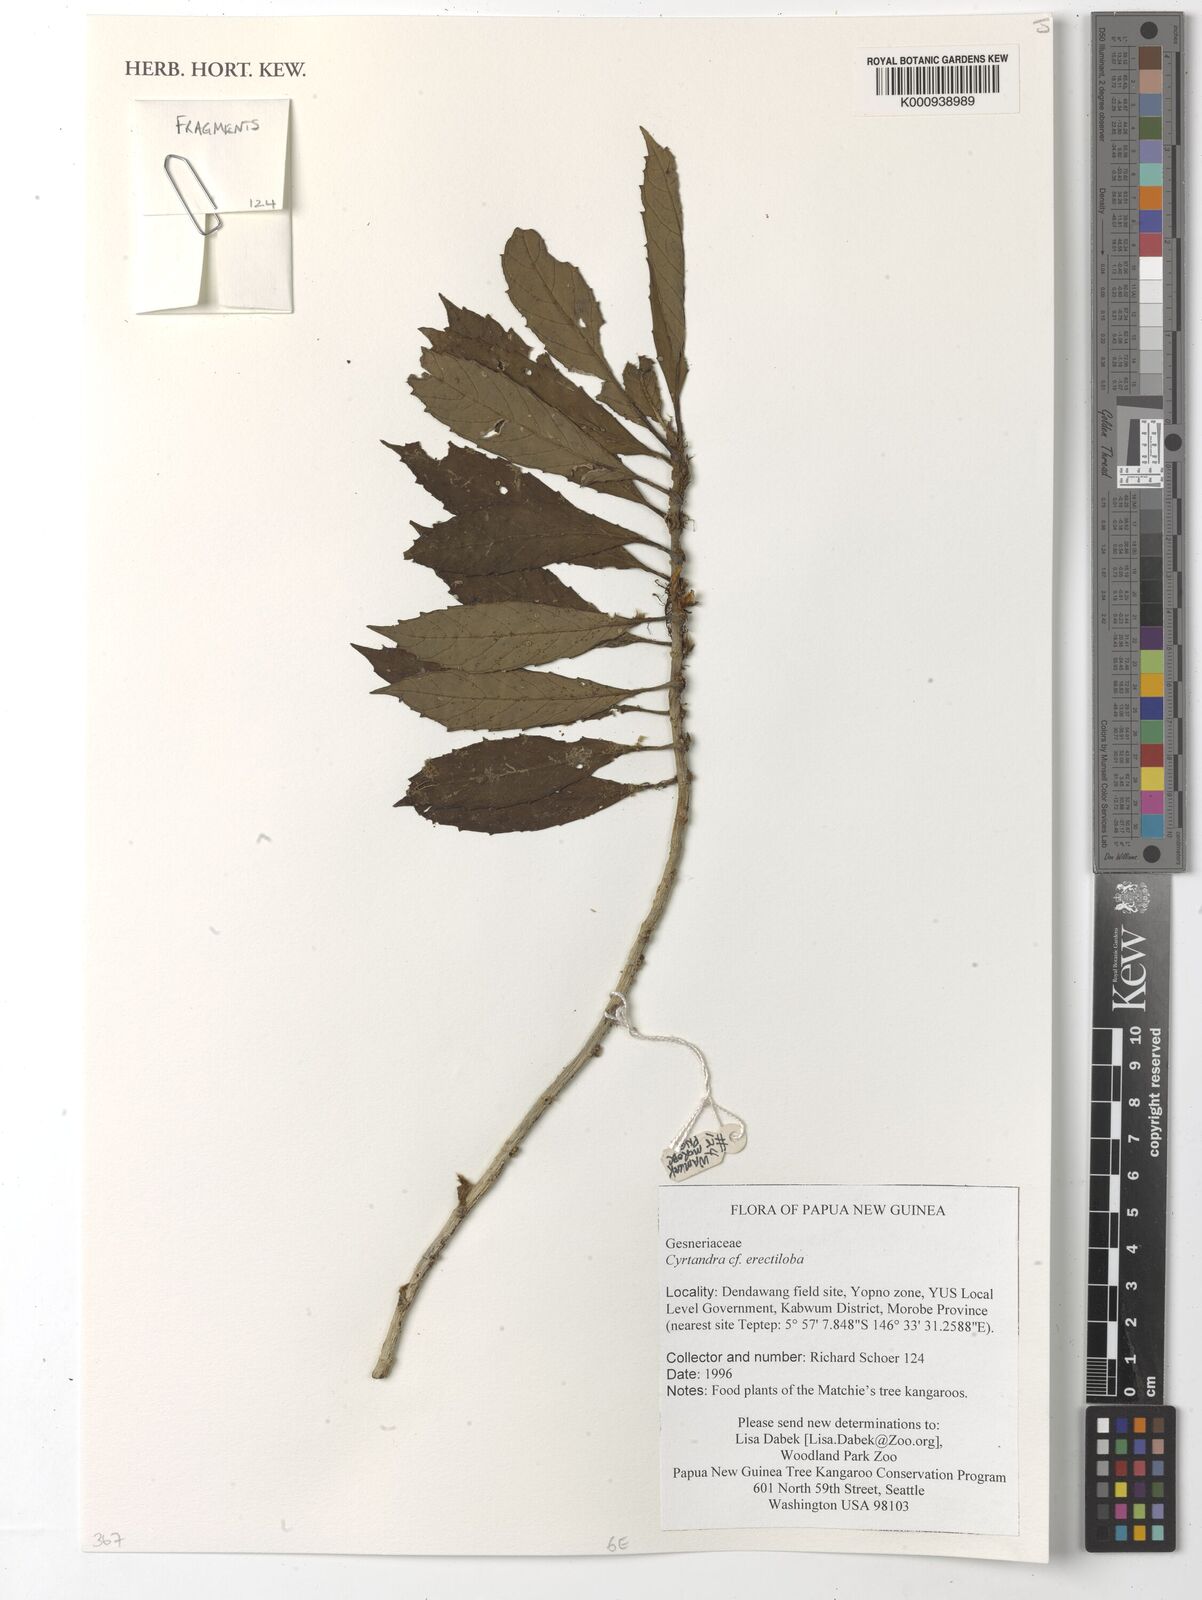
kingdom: Plantae
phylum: Tracheophyta
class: Magnoliopsida
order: Lamiales
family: Gesneriaceae
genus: Cyrtandra
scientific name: Cyrtandra erectiloba
